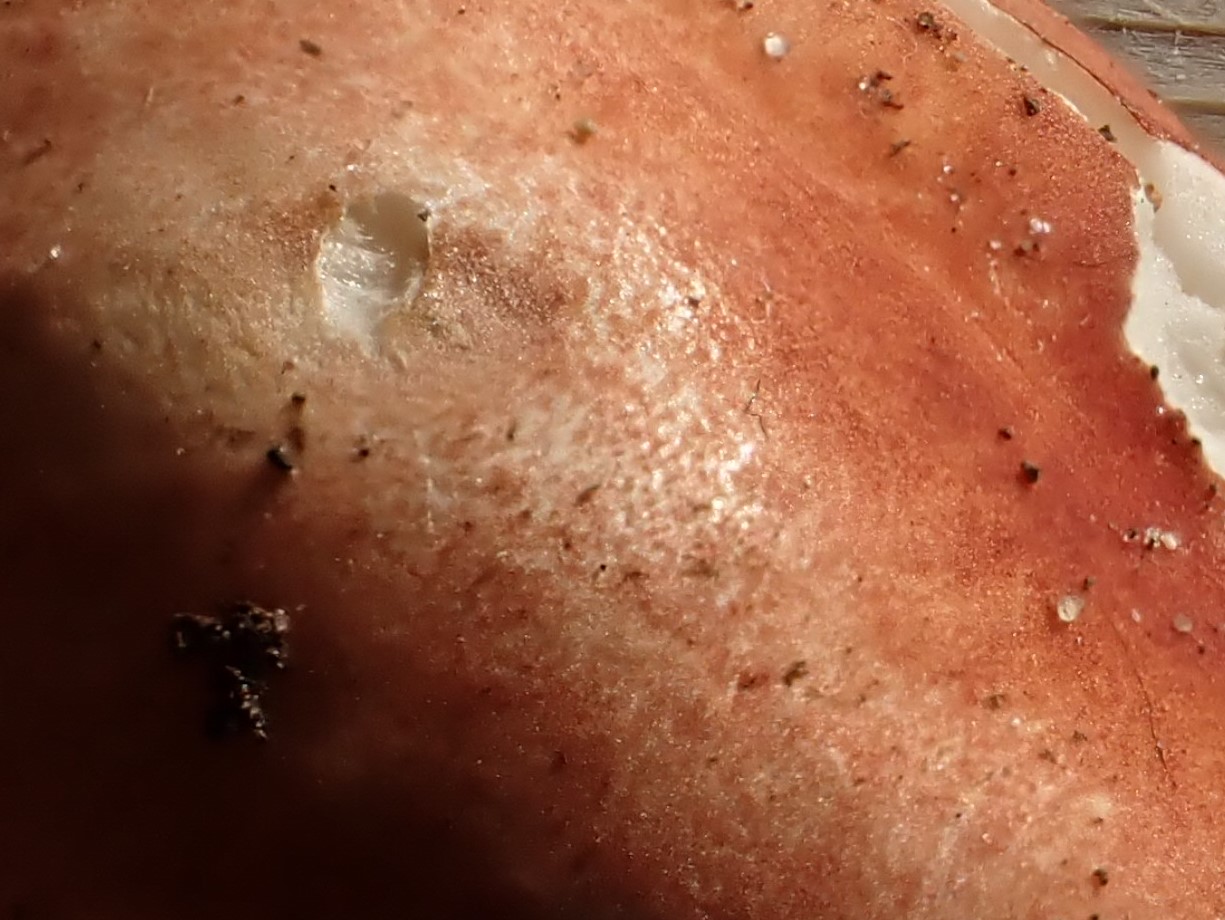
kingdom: Fungi
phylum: Basidiomycota
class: Agaricomycetes
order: Russulales
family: Russulaceae
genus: Russula
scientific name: Russula melzeri
